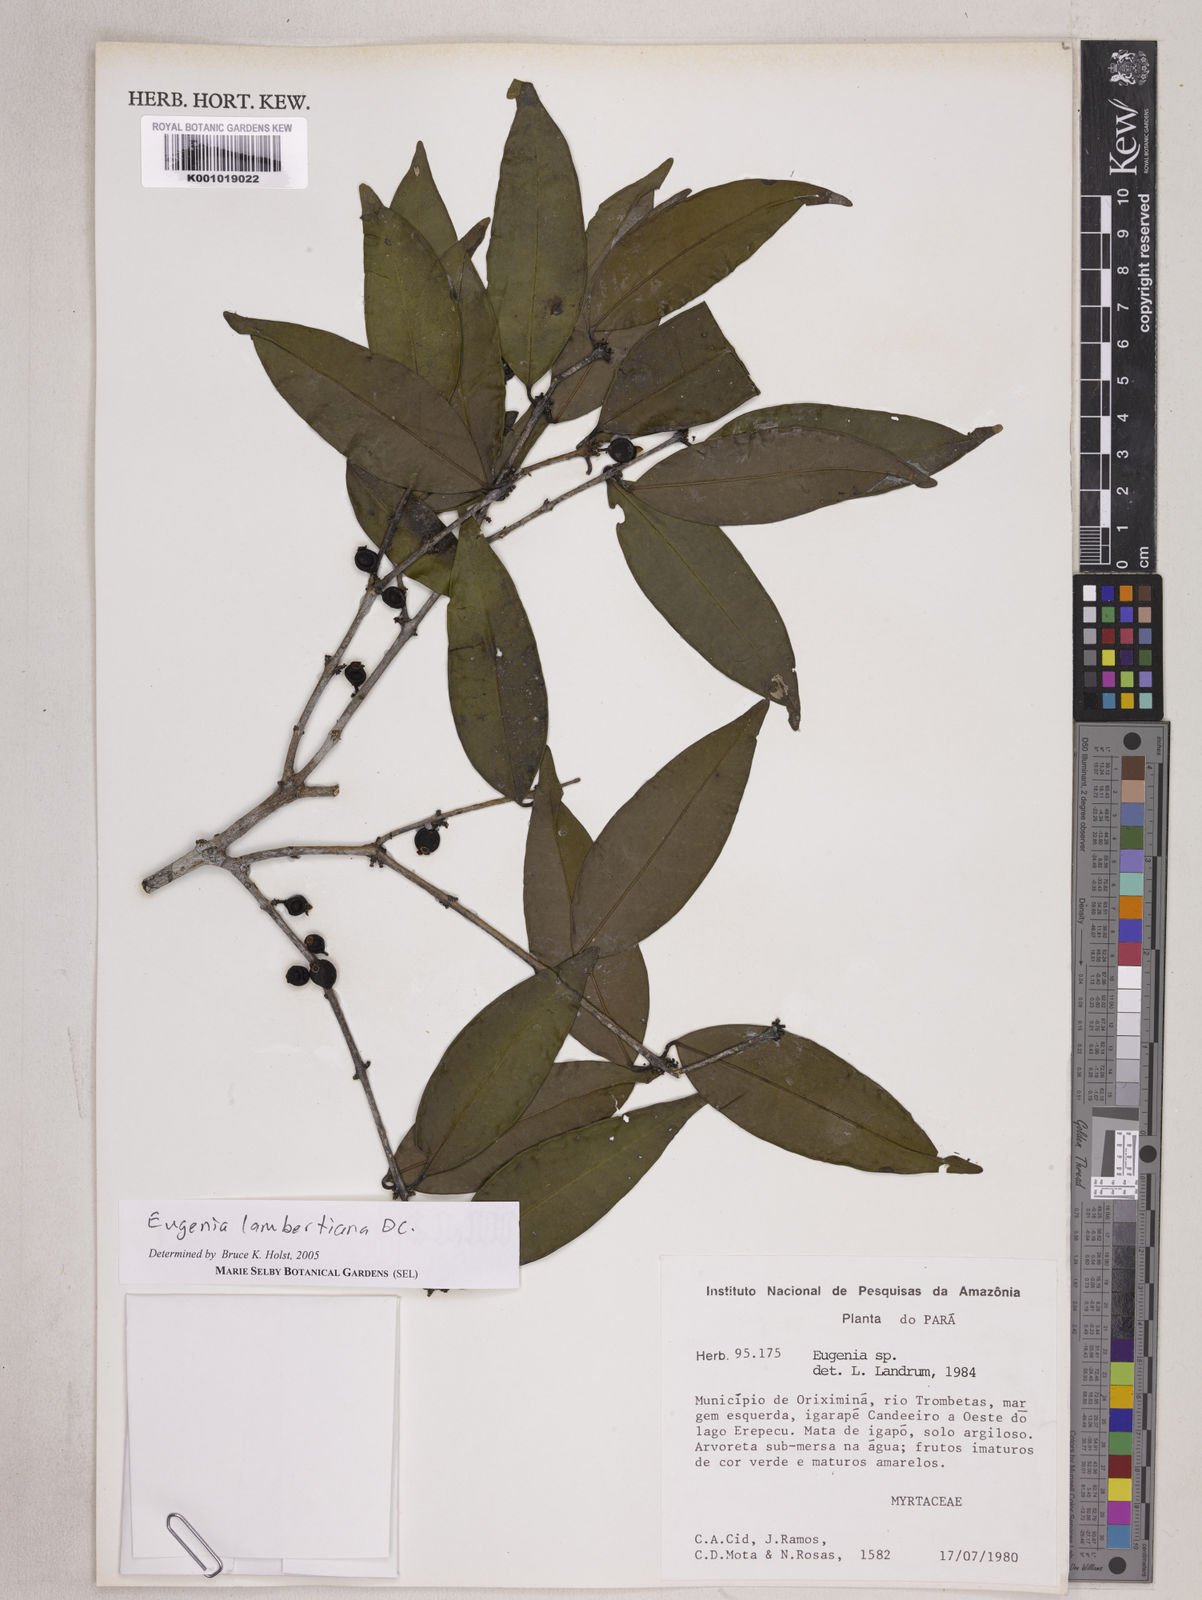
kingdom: Plantae
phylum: Tracheophyta
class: Magnoliopsida
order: Myrtales
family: Myrtaceae
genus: Eugenia
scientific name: Eugenia lambertiana
